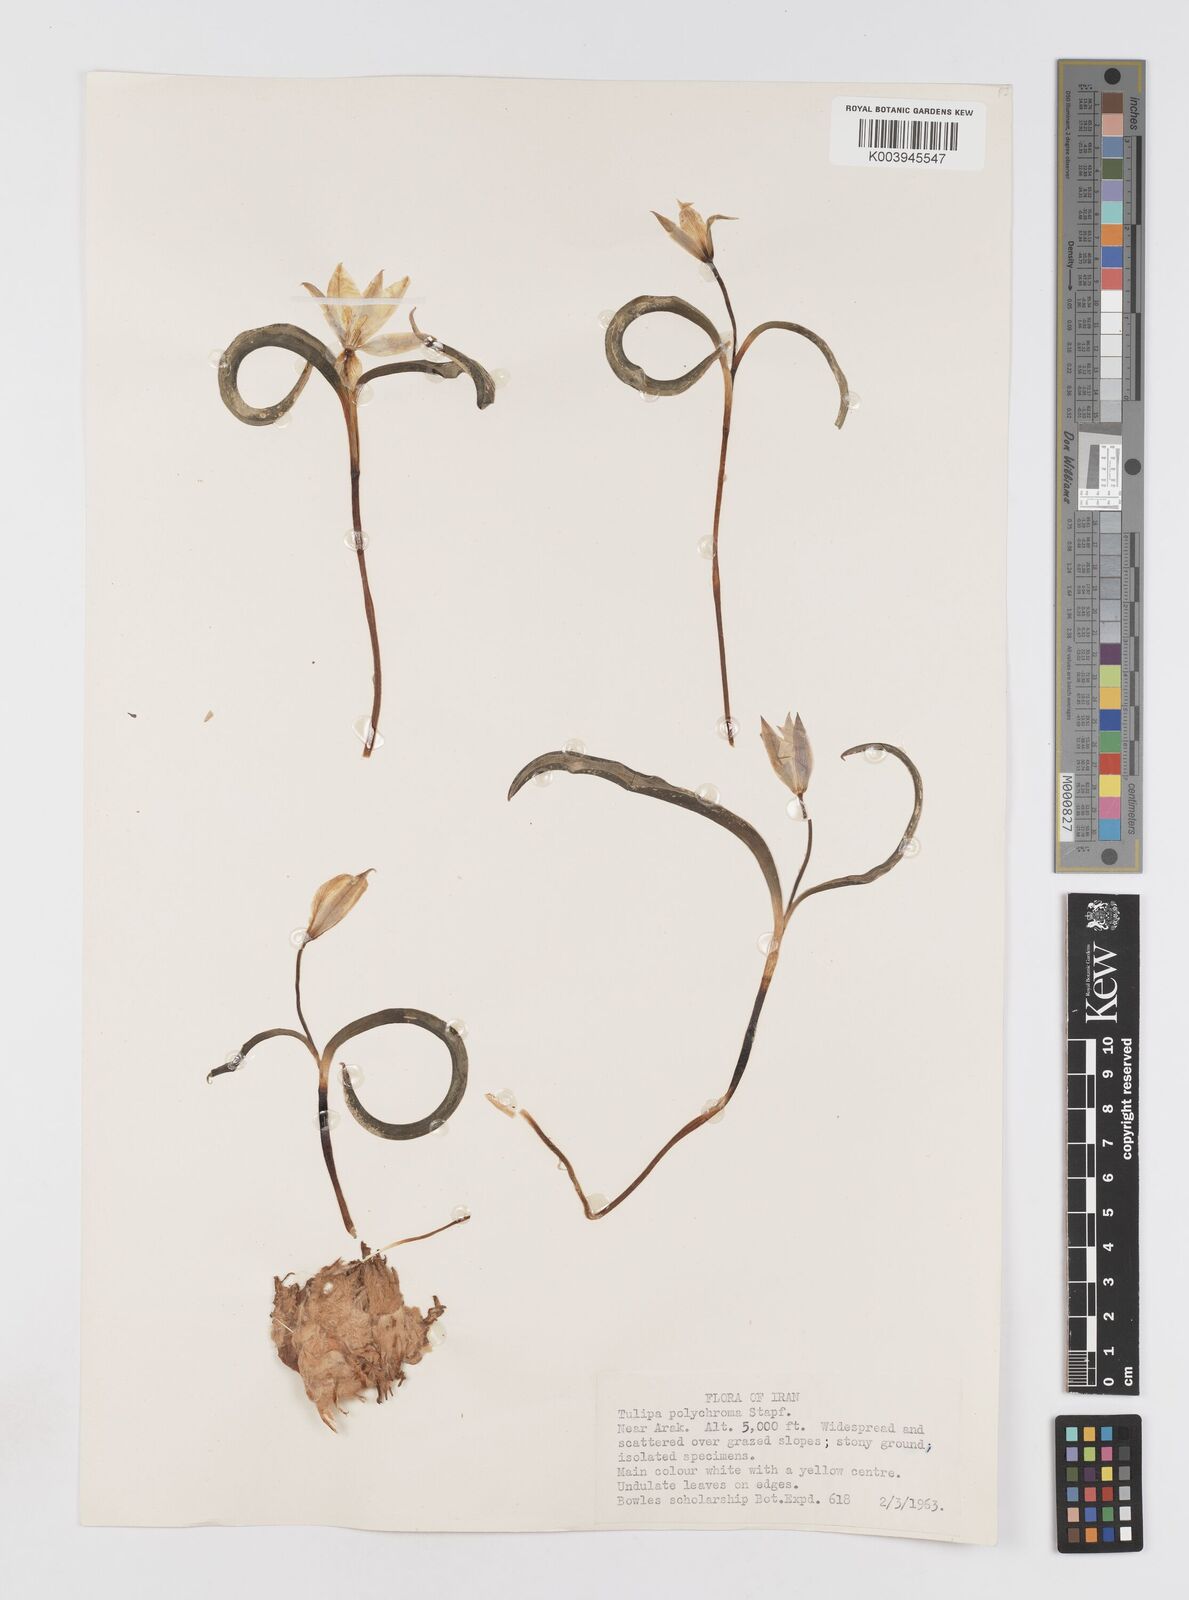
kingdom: Plantae
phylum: Tracheophyta
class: Liliopsida
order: Liliales
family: Liliaceae
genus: Tulipa
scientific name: Tulipa biflora
